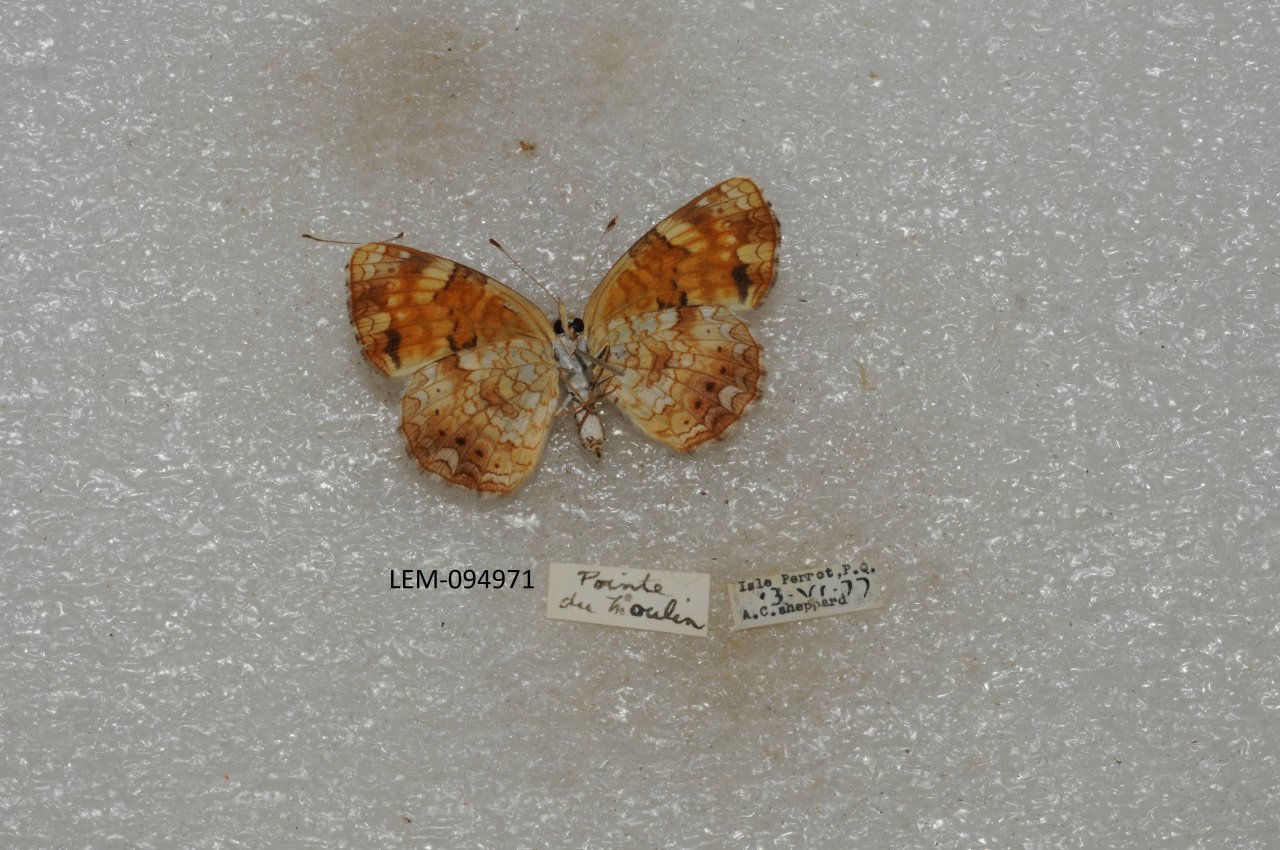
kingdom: Animalia
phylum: Arthropoda
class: Insecta
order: Lepidoptera
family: Nymphalidae
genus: Phyciodes
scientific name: Phyciodes tharos
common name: Northern Crescent
